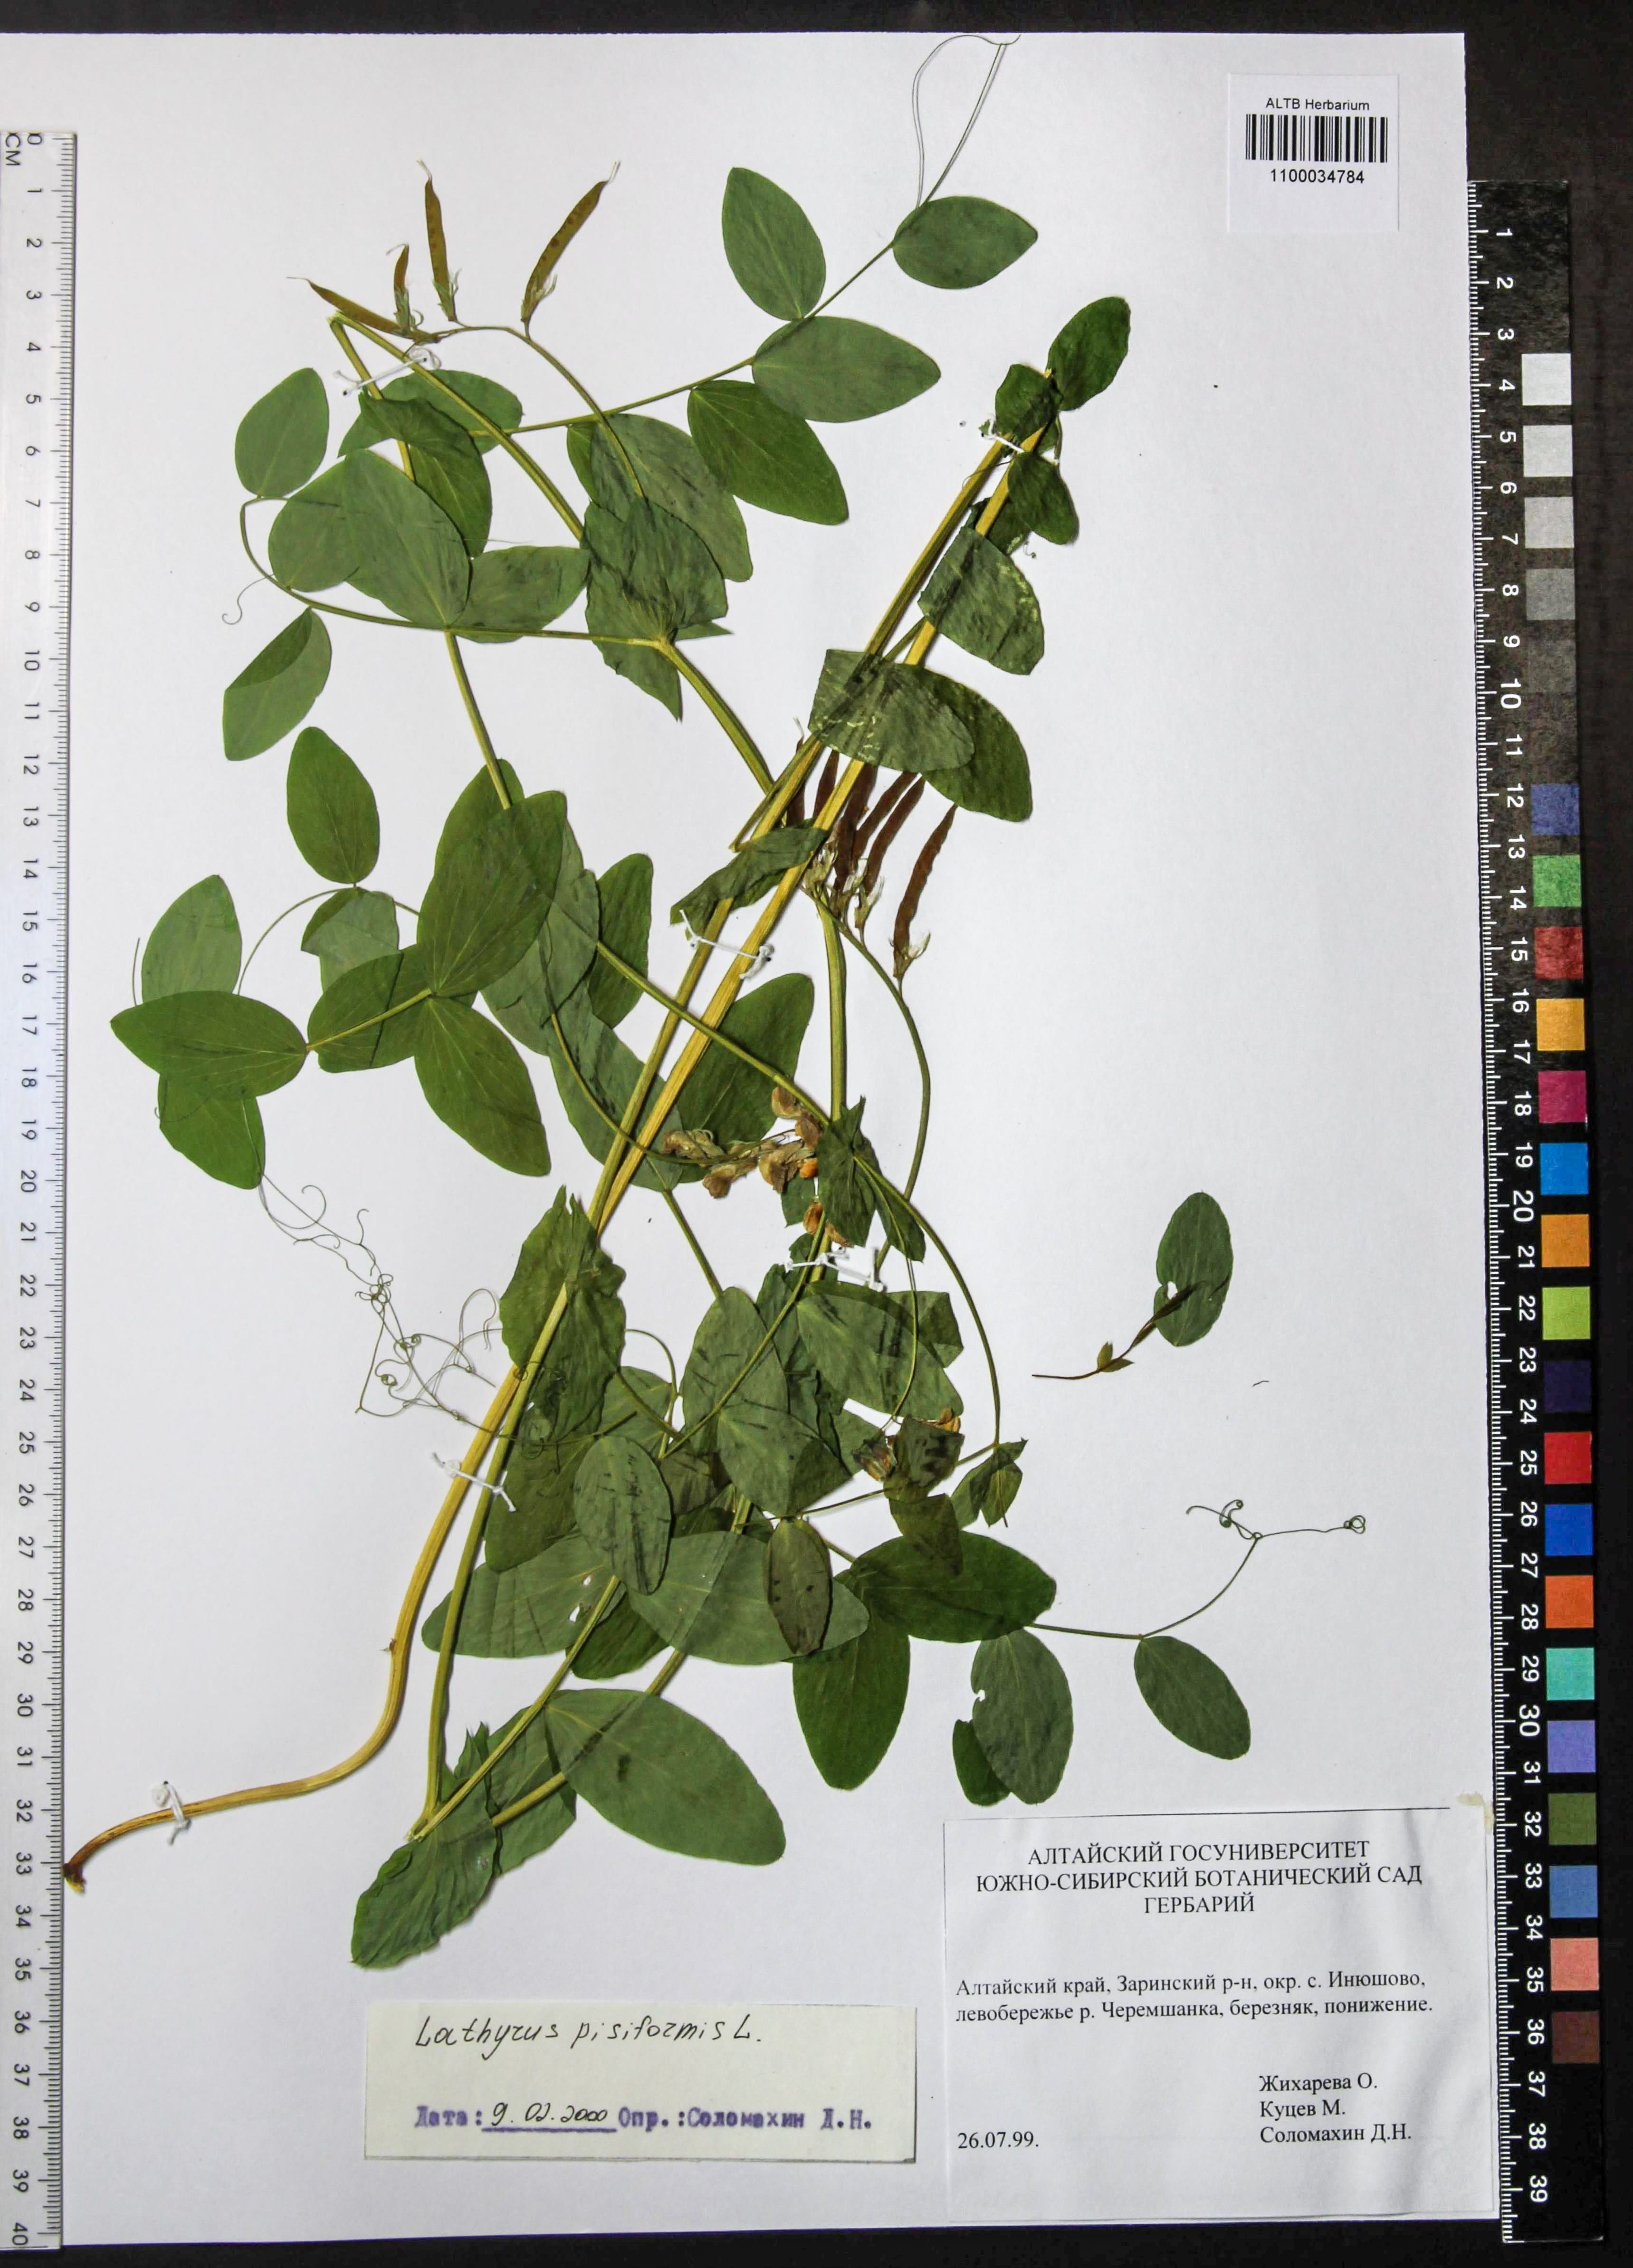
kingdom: Plantae
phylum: Tracheophyta
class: Magnoliopsida
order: Fabales
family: Fabaceae
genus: Lathyrus
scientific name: Lathyrus pisiformis
